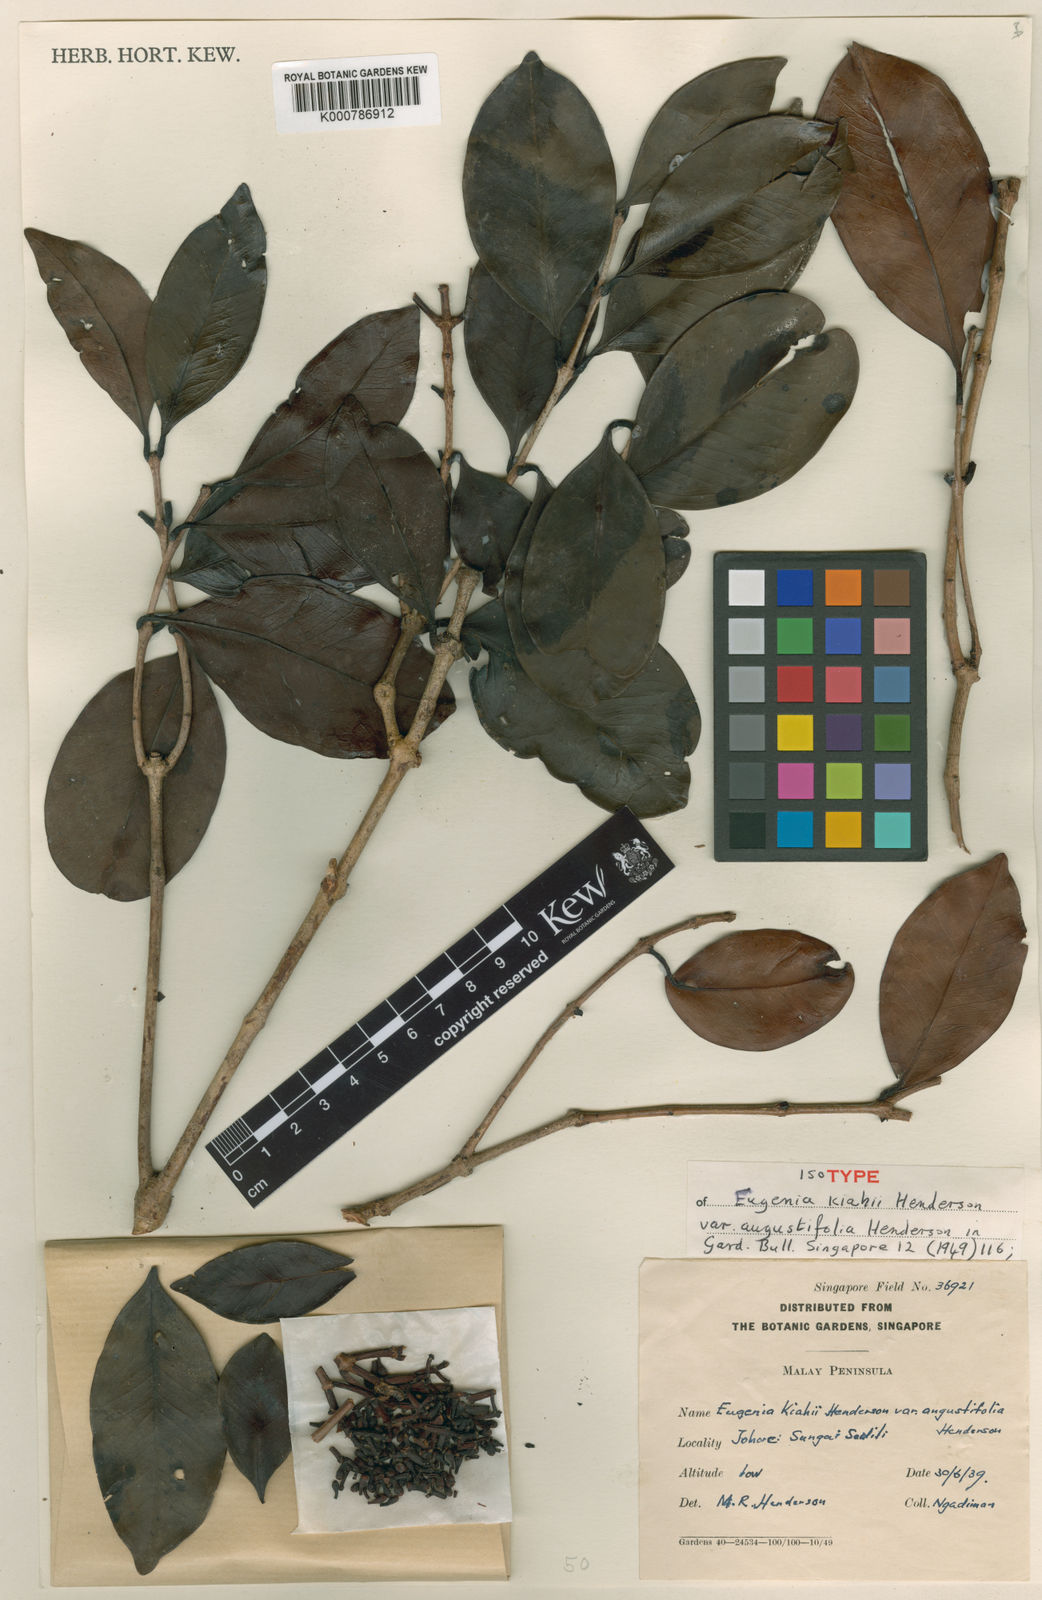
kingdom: Plantae
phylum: Tracheophyta
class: Magnoliopsida
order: Myrtales
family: Myrtaceae
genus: Syzygium
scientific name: Syzygium kiahii
